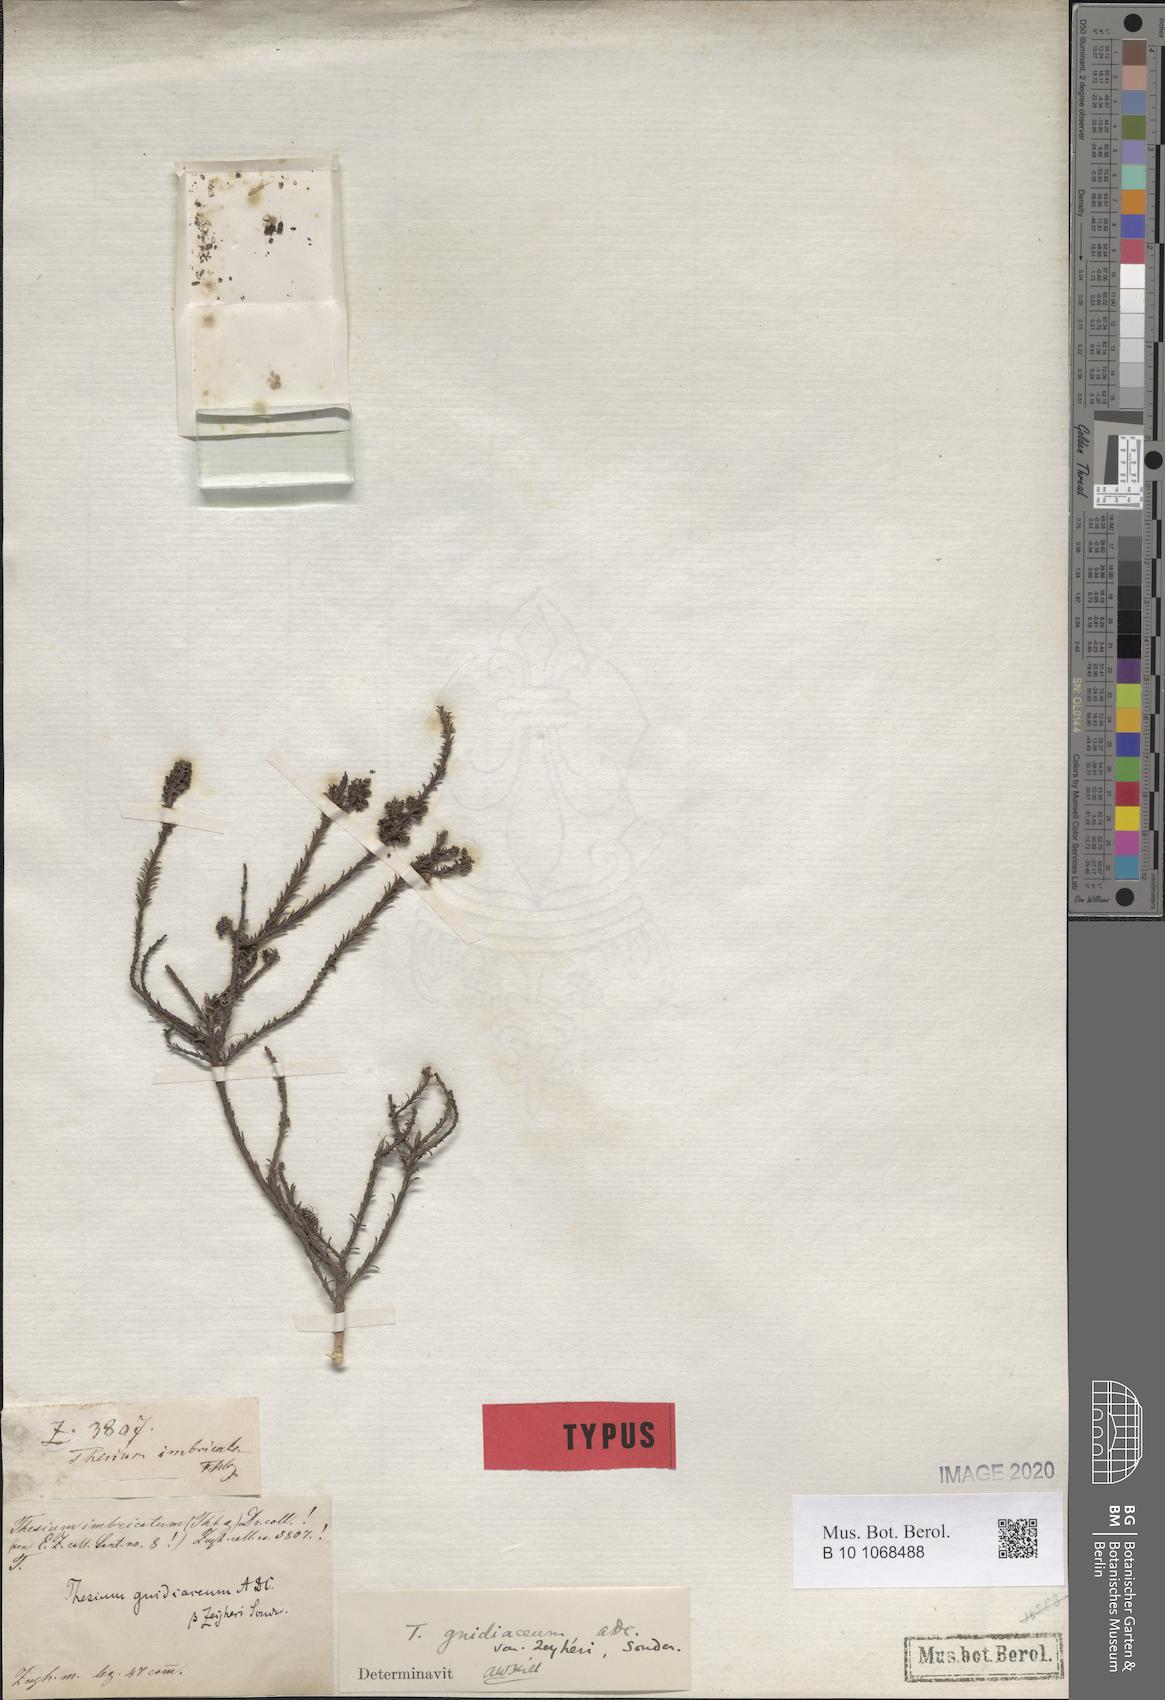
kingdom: Plantae
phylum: Tracheophyta
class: Magnoliopsida
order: Santalales
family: Thesiaceae
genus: Thesium
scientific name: Thesium gnidiaceum
